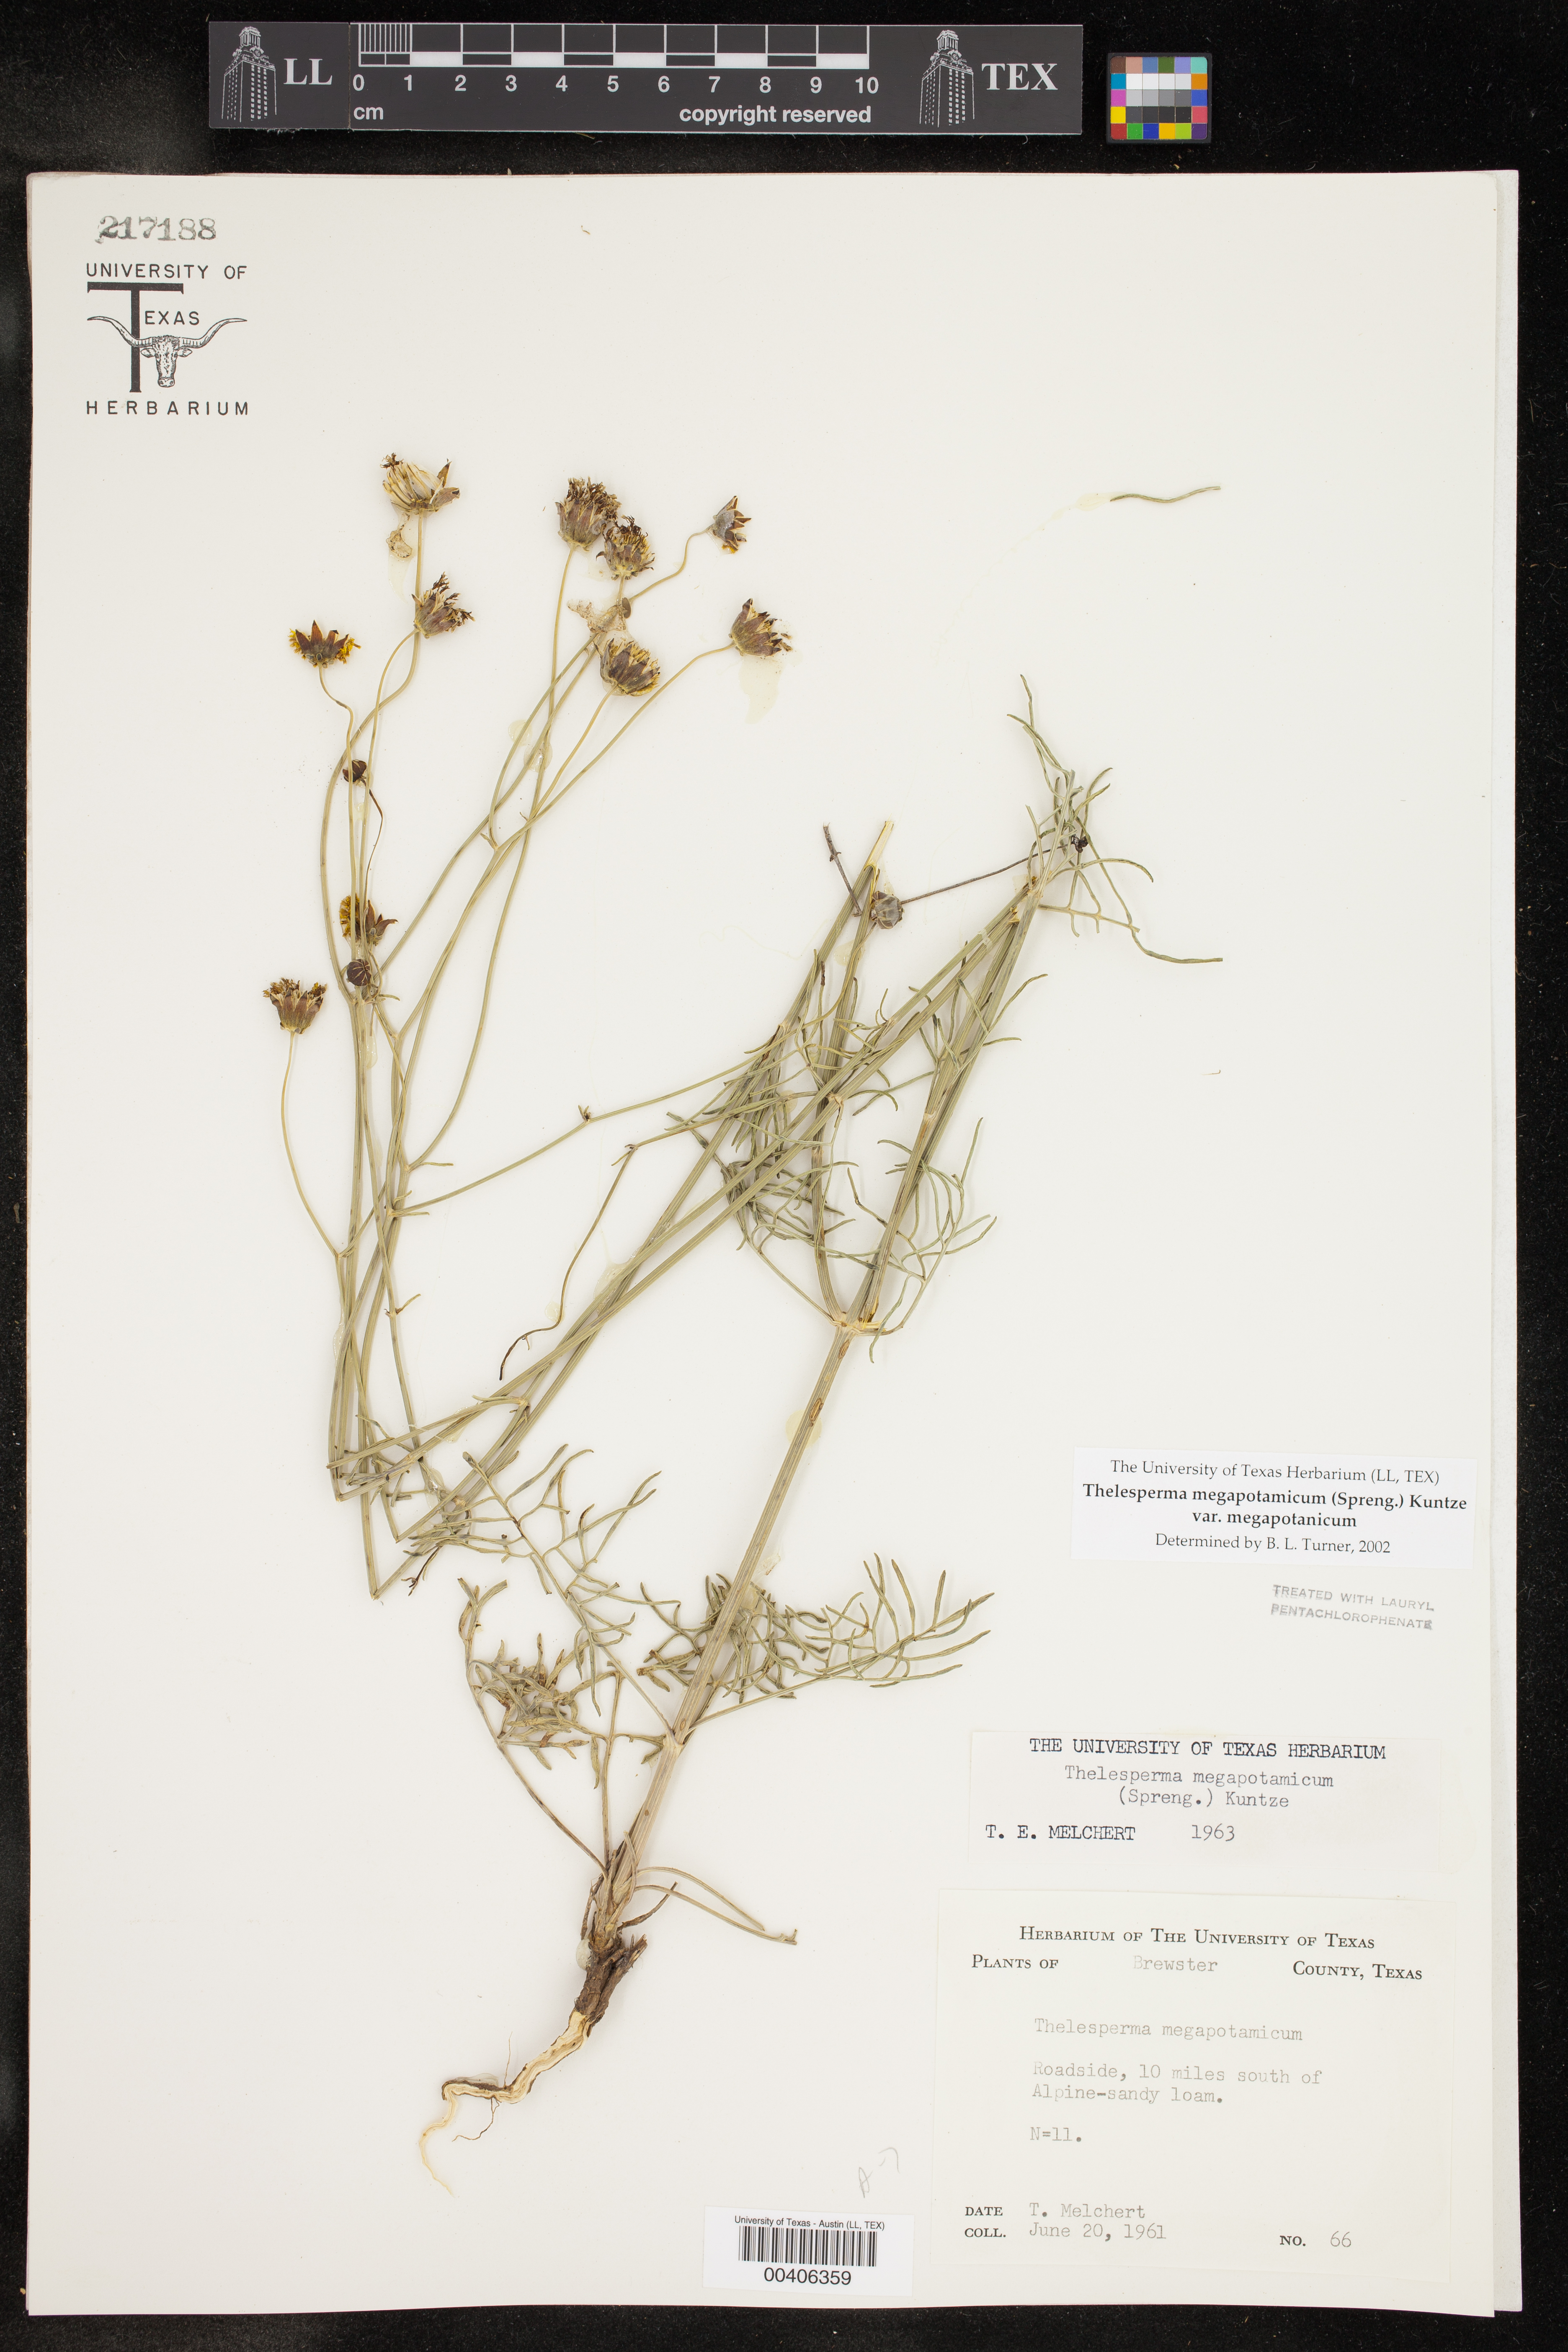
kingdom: Plantae
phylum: Tracheophyta
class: Magnoliopsida
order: Asterales
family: Asteraceae
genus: Thelesperma
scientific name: Thelesperma megapotamicum
